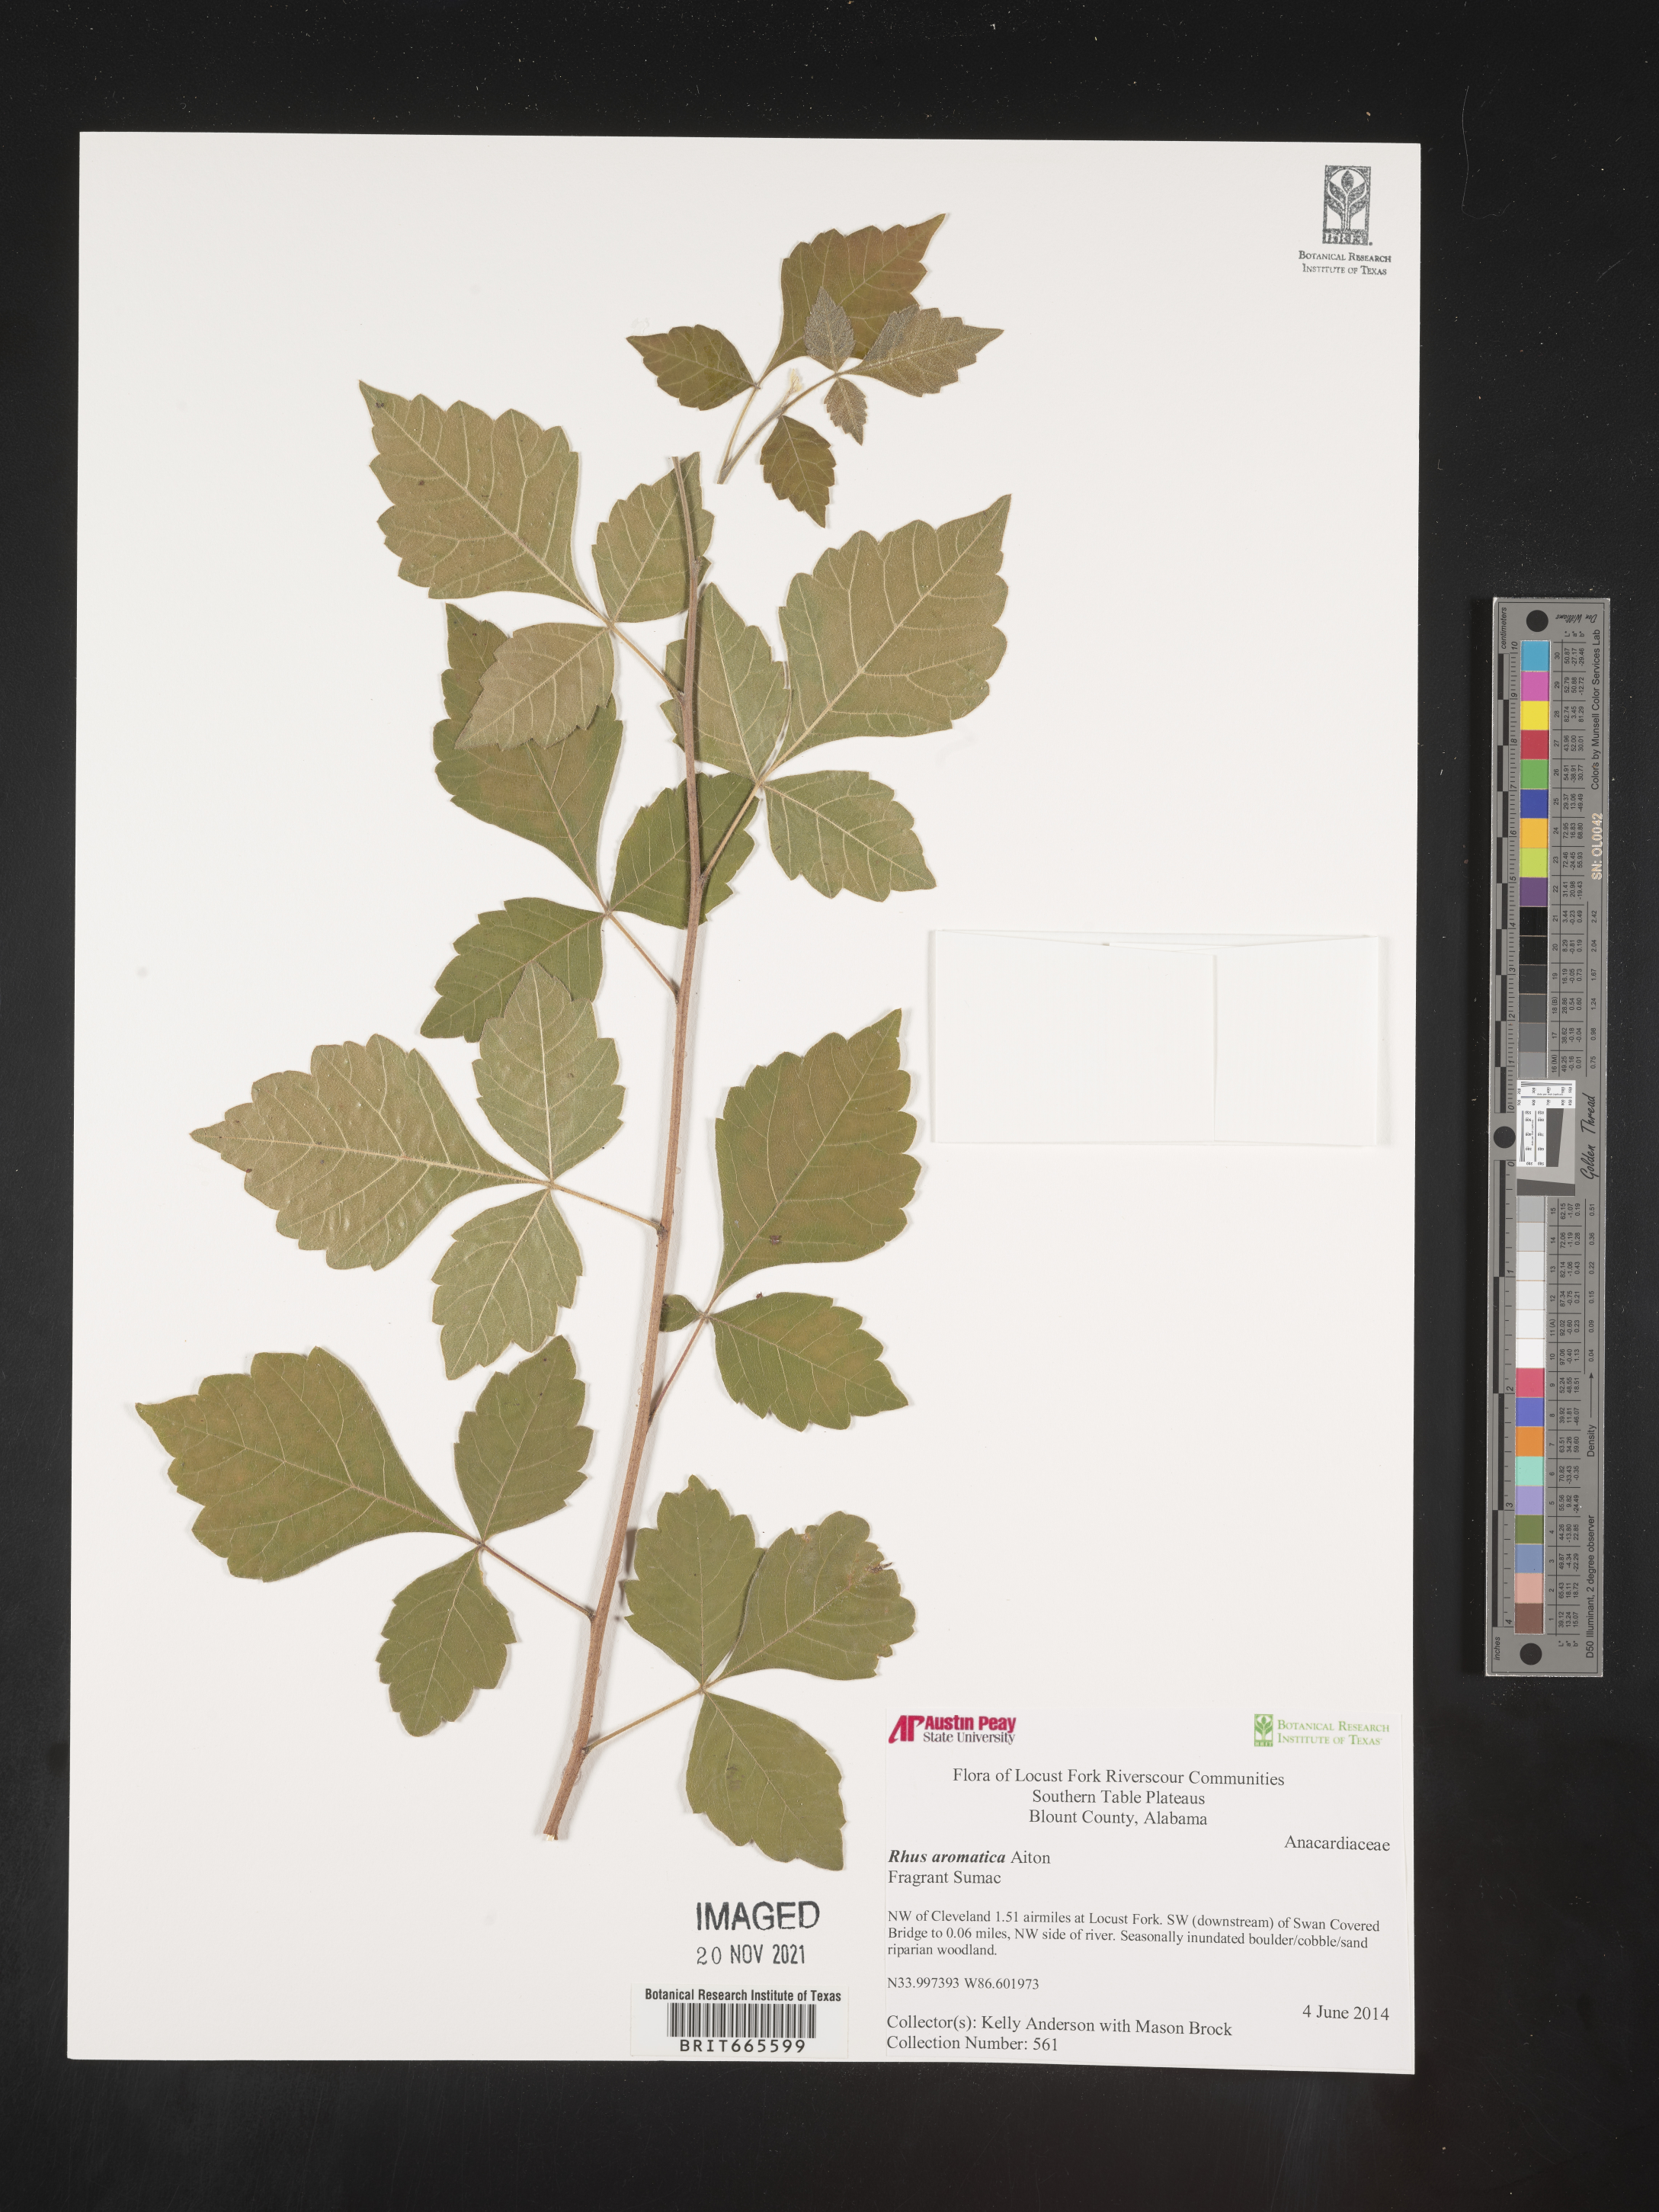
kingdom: Plantae
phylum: Tracheophyta
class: Magnoliopsida
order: Sapindales
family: Anacardiaceae
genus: Rhus
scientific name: Rhus aromatica
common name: Aromatic sumac
